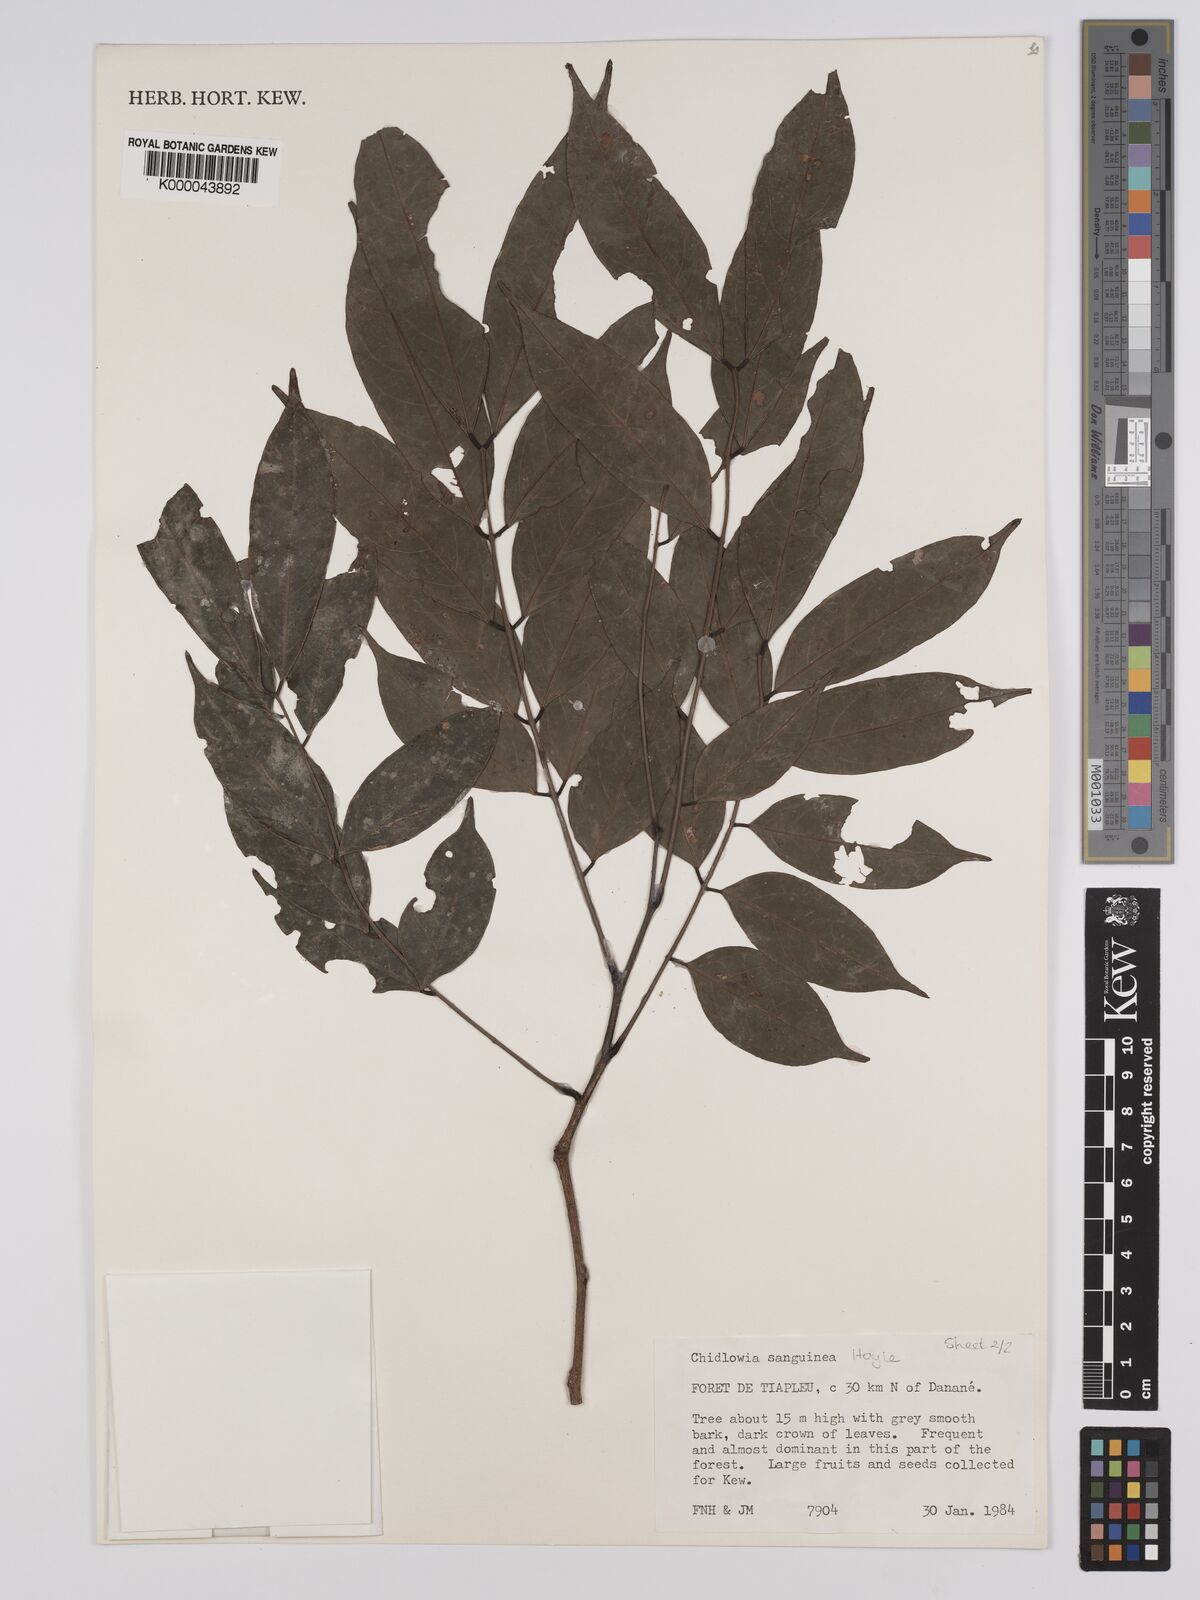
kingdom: Plantae
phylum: Tracheophyta
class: Magnoliopsida
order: Fabales
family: Fabaceae
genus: Chidlowia
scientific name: Chidlowia sanguinea
